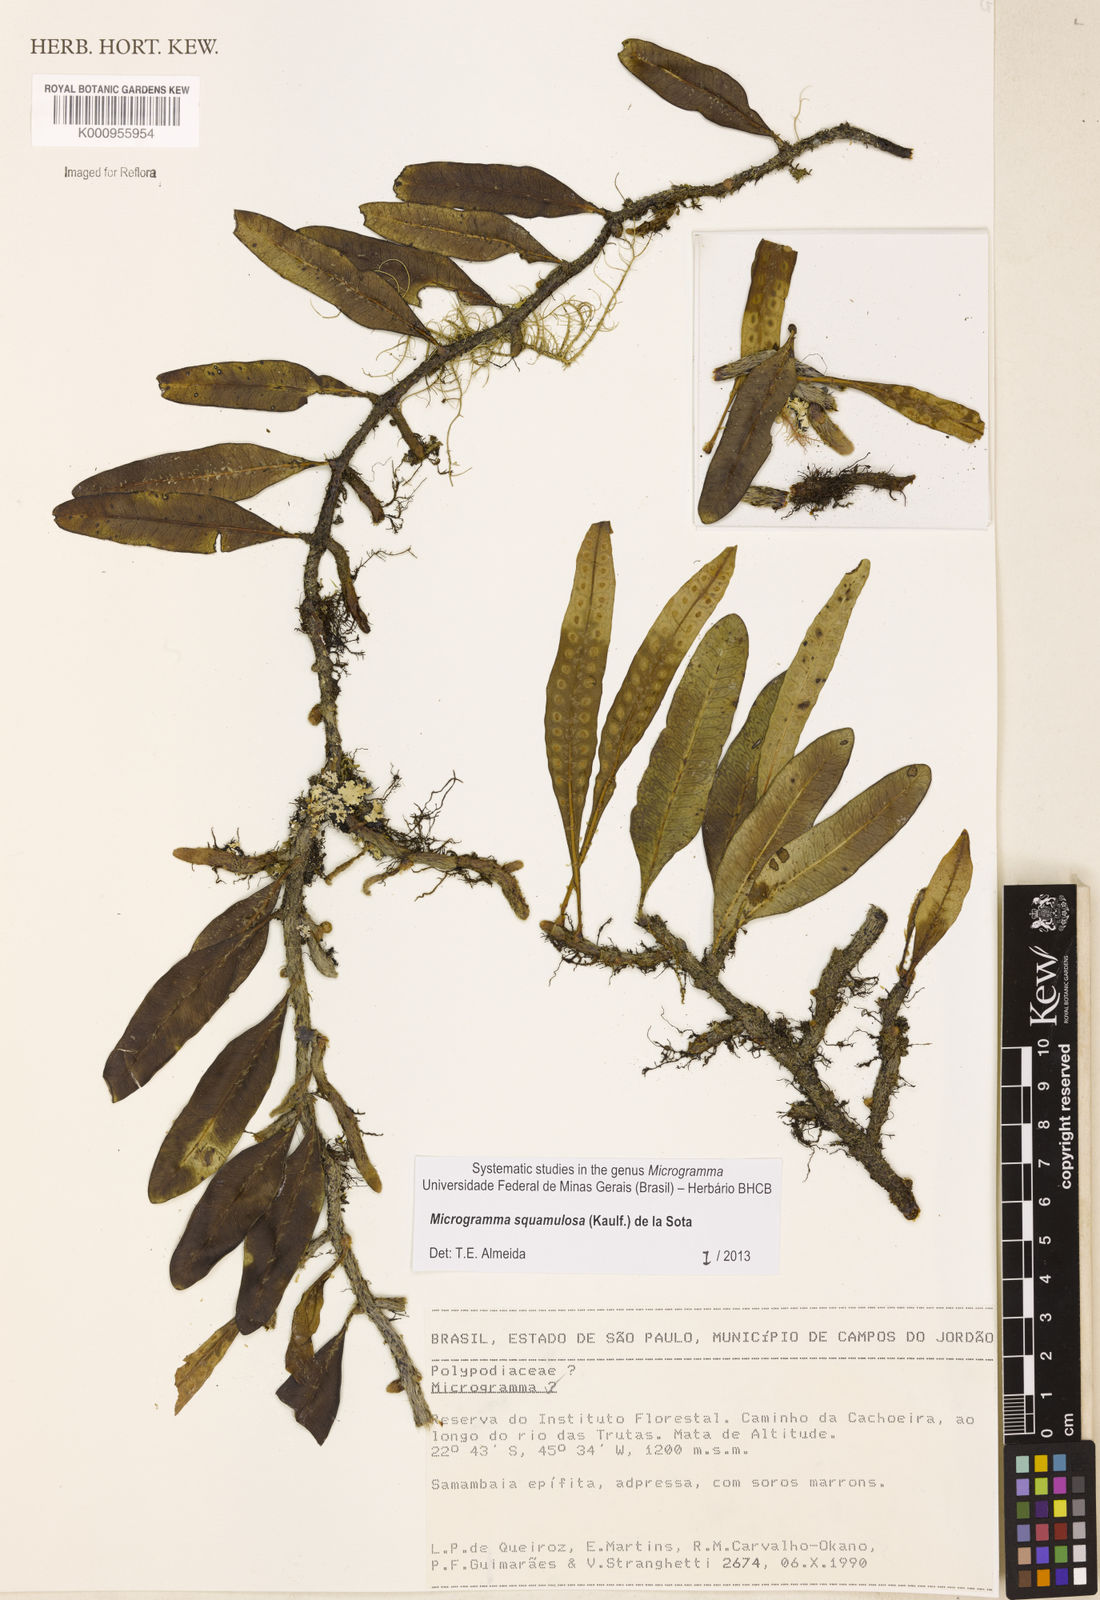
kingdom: Plantae
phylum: Tracheophyta
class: Polypodiopsida
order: Polypodiales
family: Polypodiaceae
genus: Microgramma
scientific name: Microgramma squamulosa
